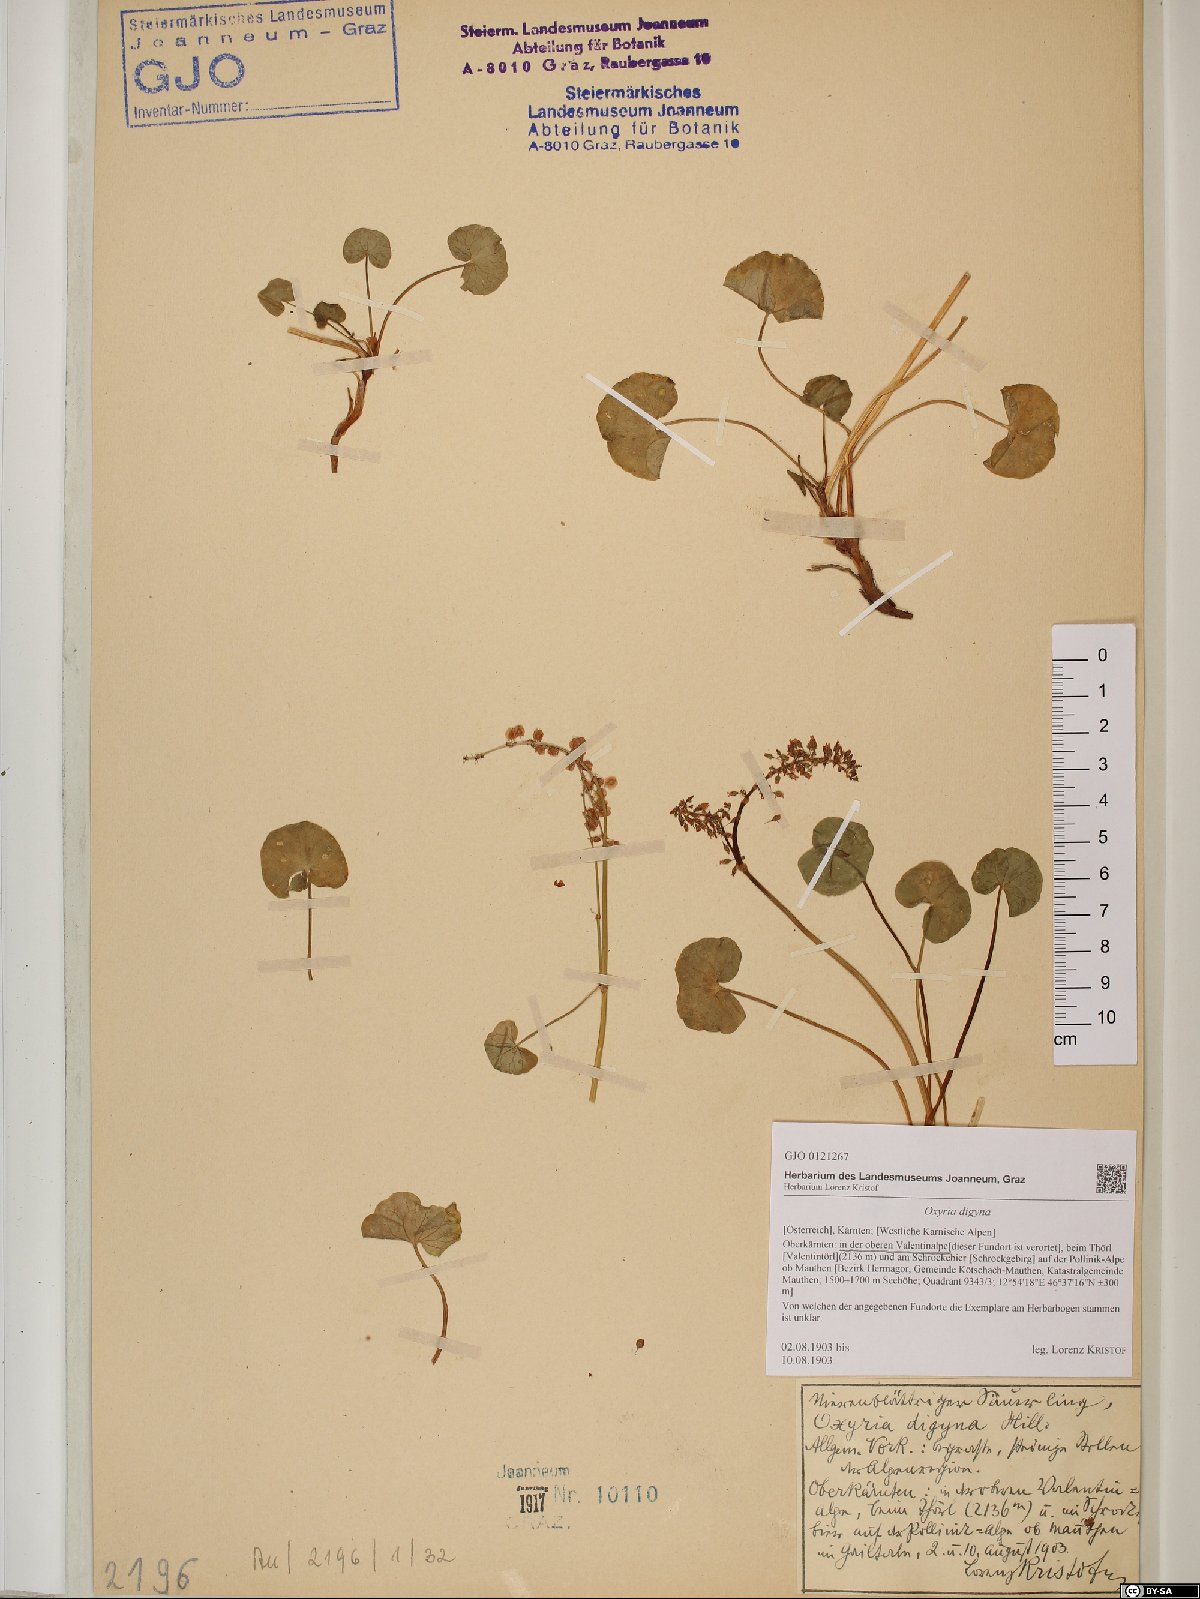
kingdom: Plantae
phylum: Tracheophyta
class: Magnoliopsida
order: Caryophyllales
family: Polygonaceae
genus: Oxyria
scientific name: Oxyria digyna
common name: Alpine mountain-sorrel
